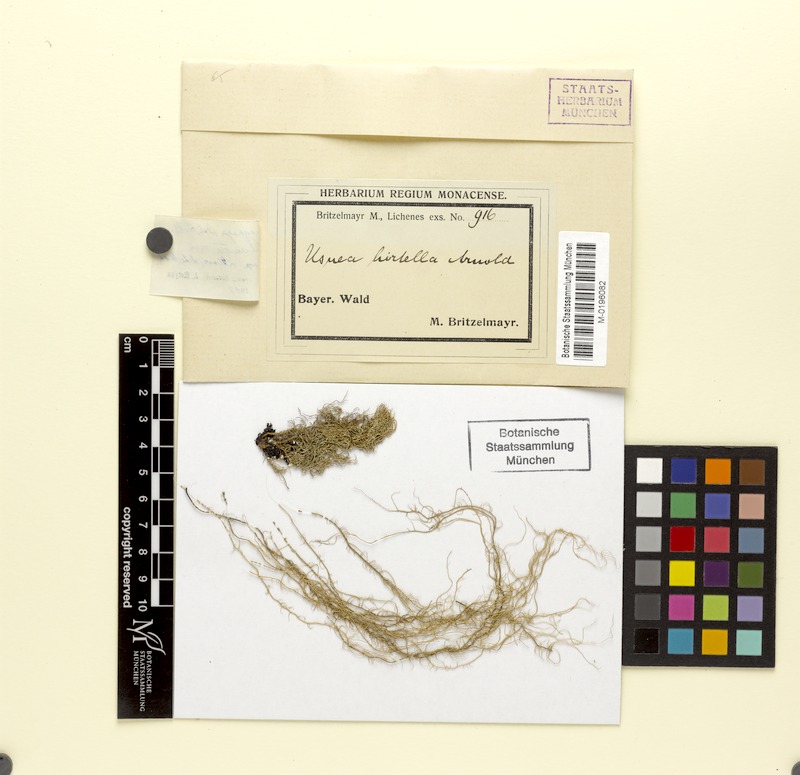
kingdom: Fungi
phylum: Ascomycota
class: Lecanoromycetes
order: Lecanorales
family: Parmeliaceae
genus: Usnea
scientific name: Usnea hirta
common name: Bristly beard lichen
